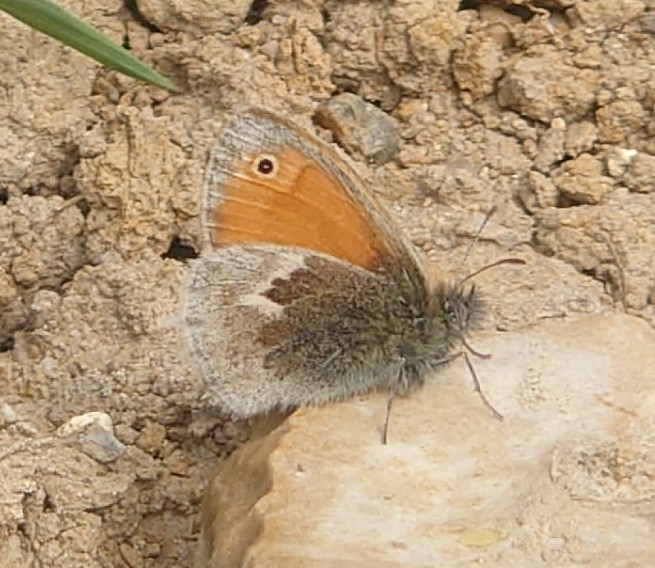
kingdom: Animalia
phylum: Arthropoda
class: Insecta
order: Lepidoptera
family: Nymphalidae
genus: Coenonympha
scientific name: Coenonympha pamphilus
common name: Okkergul randøje
